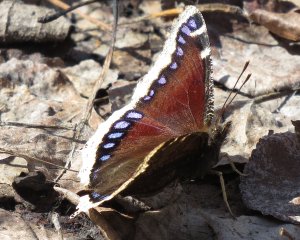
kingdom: Animalia
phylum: Arthropoda
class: Insecta
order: Lepidoptera
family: Nymphalidae
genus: Nymphalis
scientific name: Nymphalis antiopa
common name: Mourning Cloak
